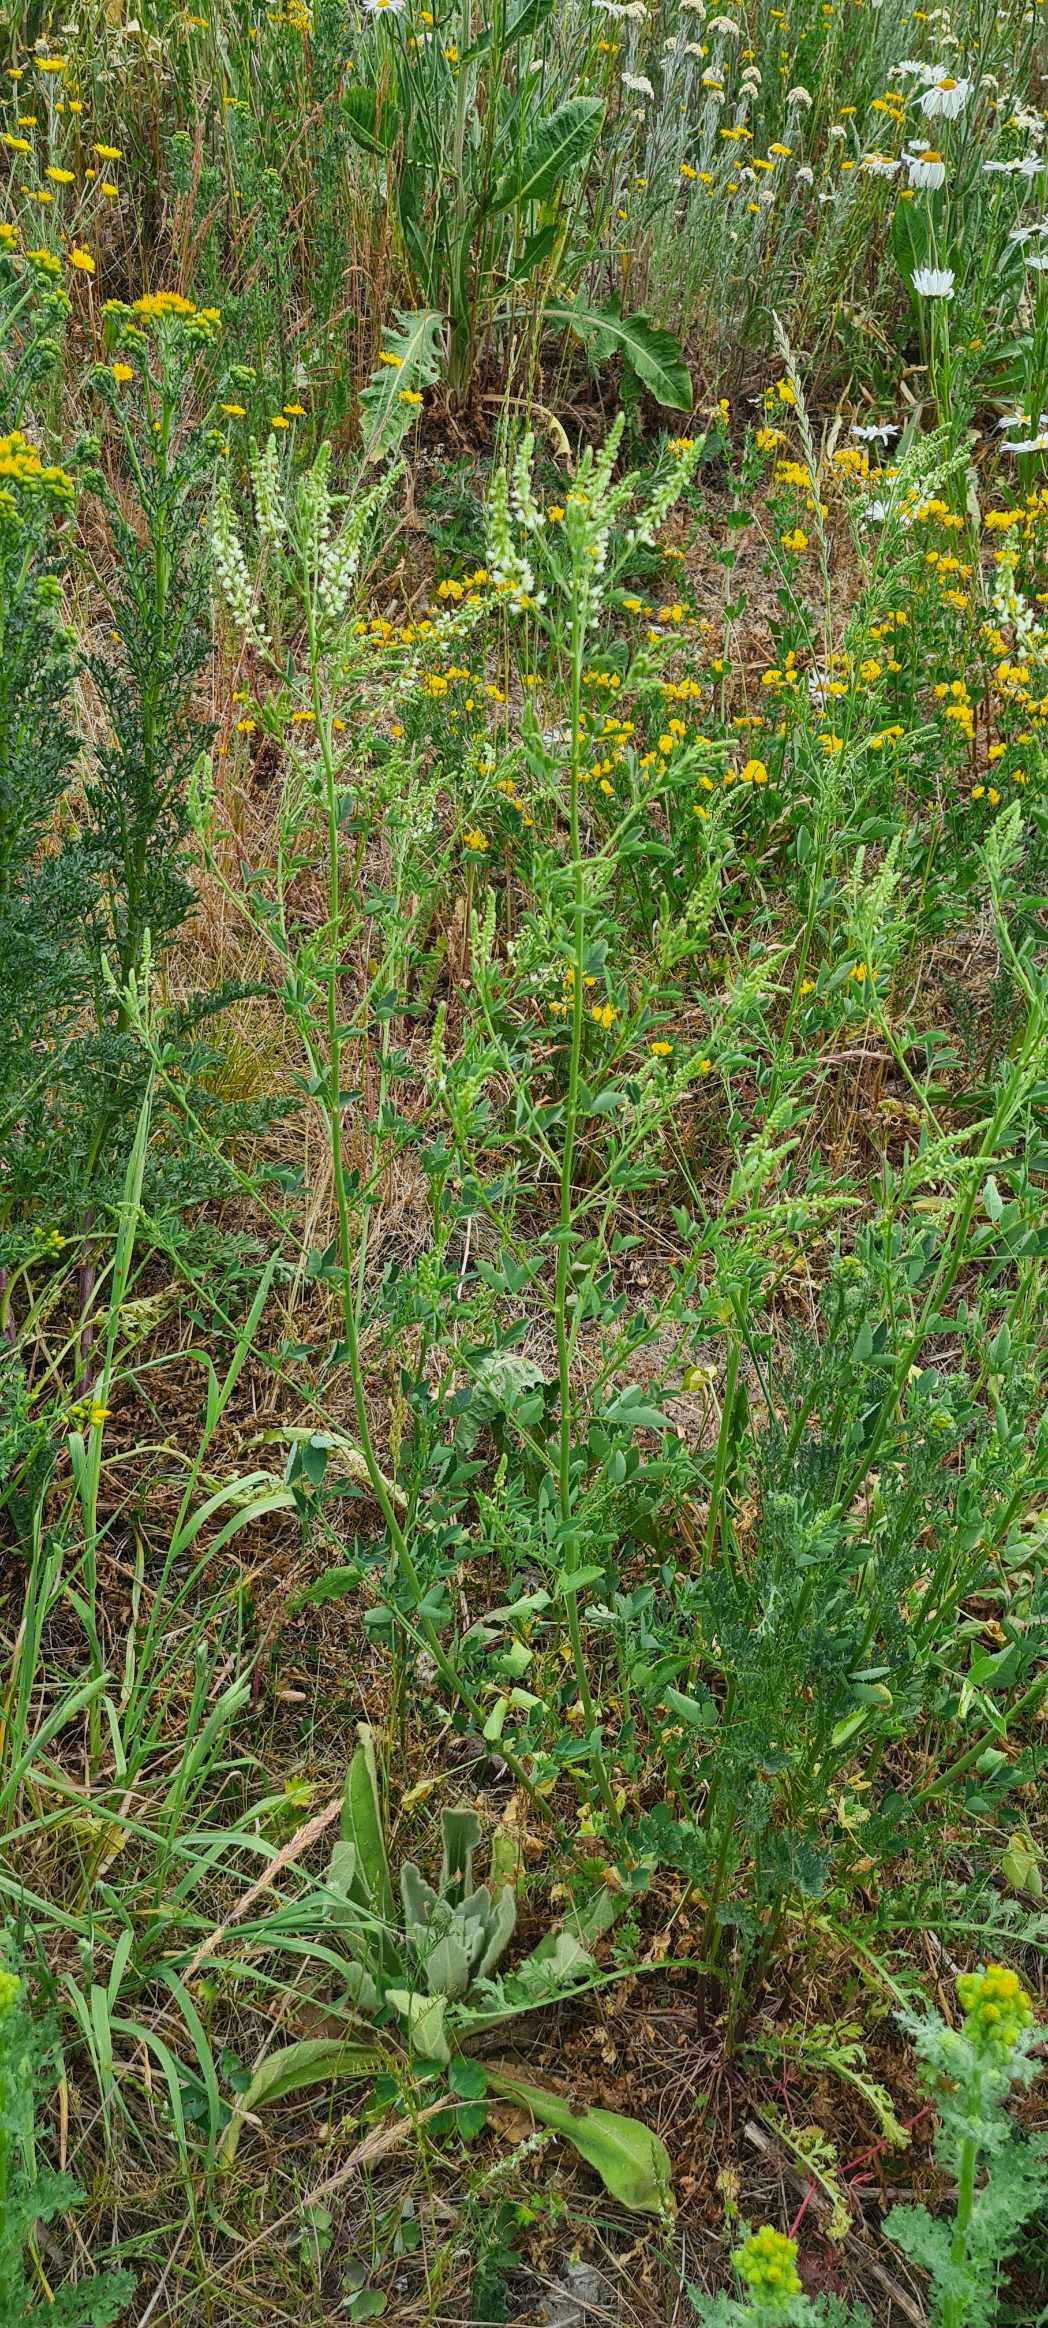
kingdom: Plantae
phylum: Tracheophyta
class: Magnoliopsida
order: Fabales
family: Fabaceae
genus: Melilotus
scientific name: Melilotus albus
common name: Hvid stenkløver
